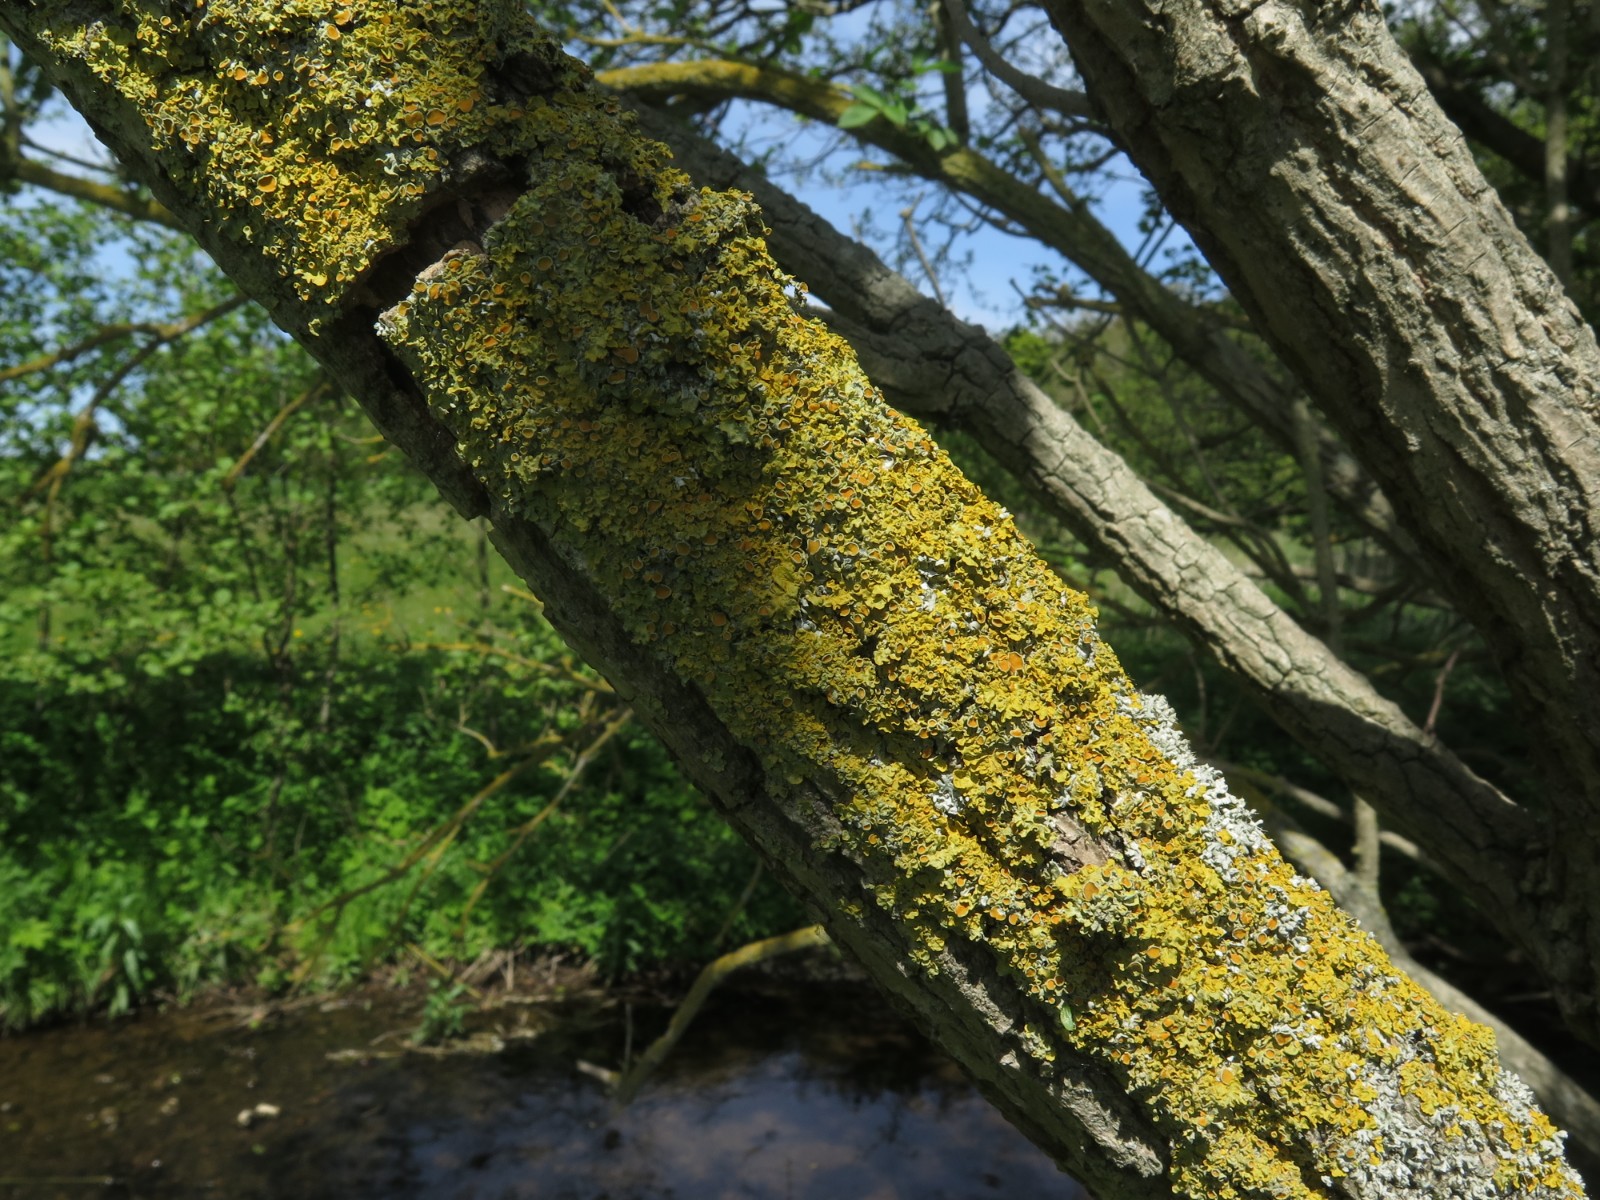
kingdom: Fungi
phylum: Ascomycota
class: Lecanoromycetes
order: Teloschistales
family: Teloschistaceae
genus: Xanthoria
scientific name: Xanthoria parietina
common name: almindelig væggelav
